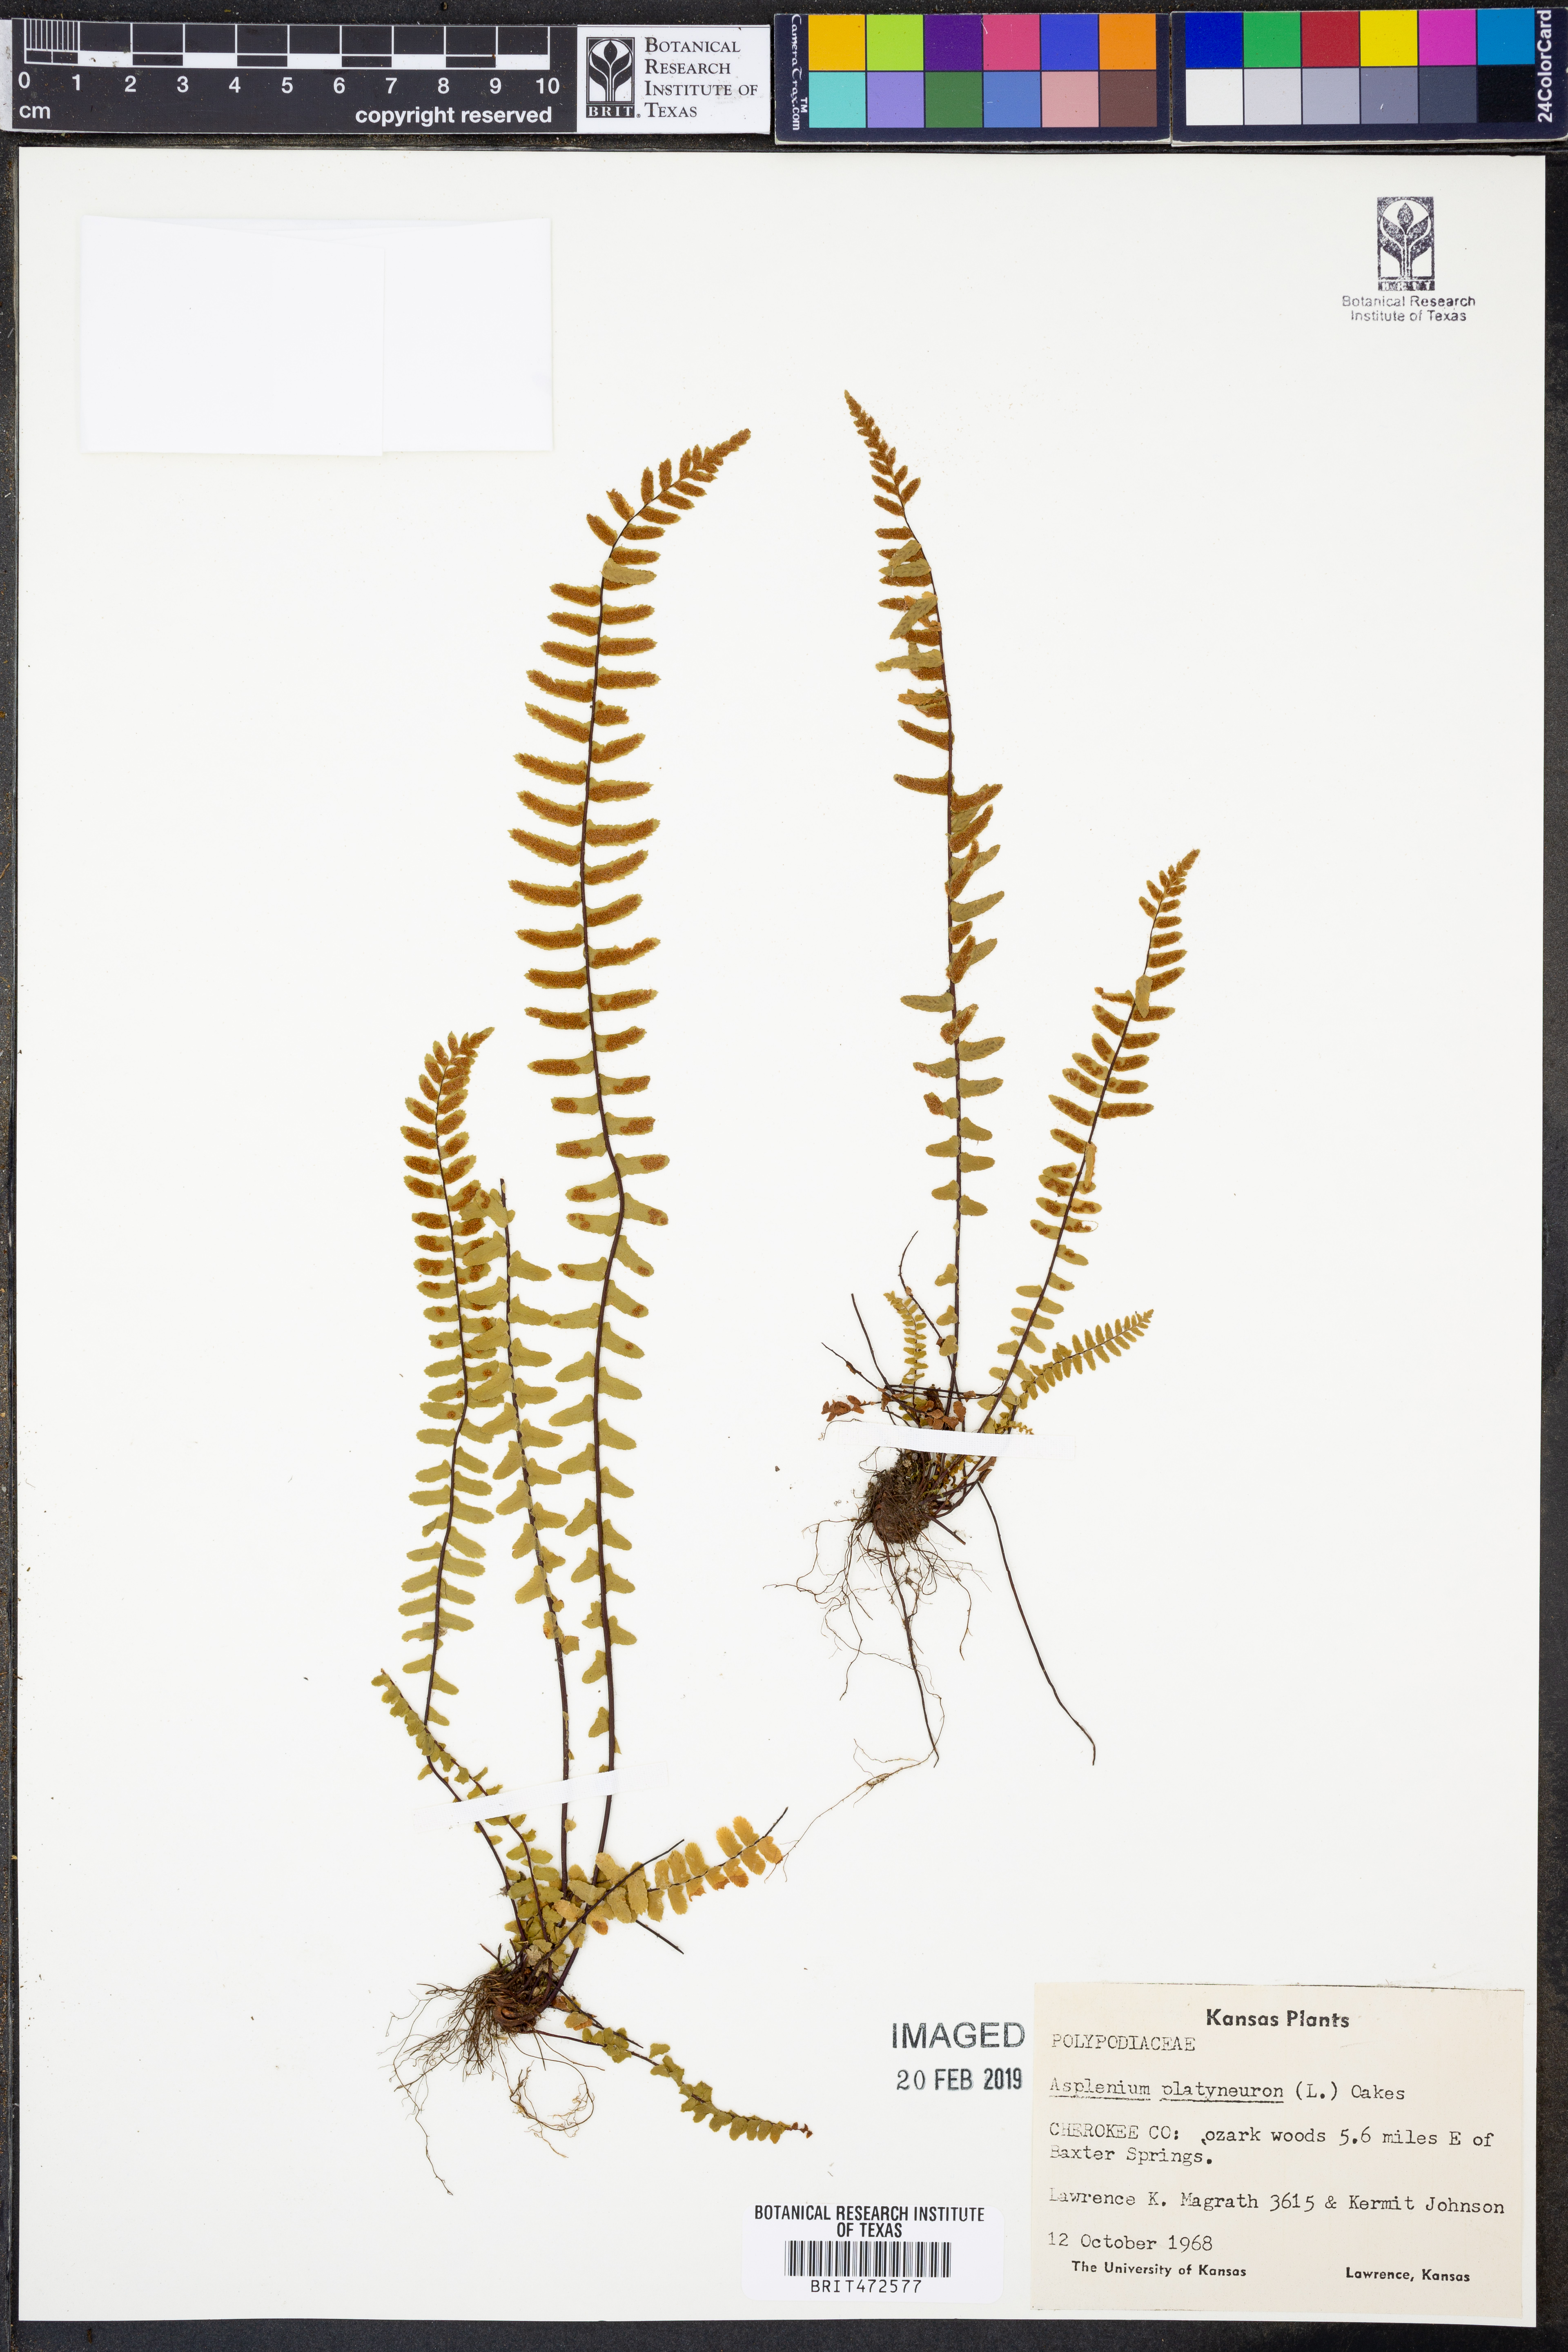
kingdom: Plantae
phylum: Tracheophyta
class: Polypodiopsida
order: Polypodiales
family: Aspleniaceae
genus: Asplenium
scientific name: Asplenium platyneuron
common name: Ebony spleenwort
